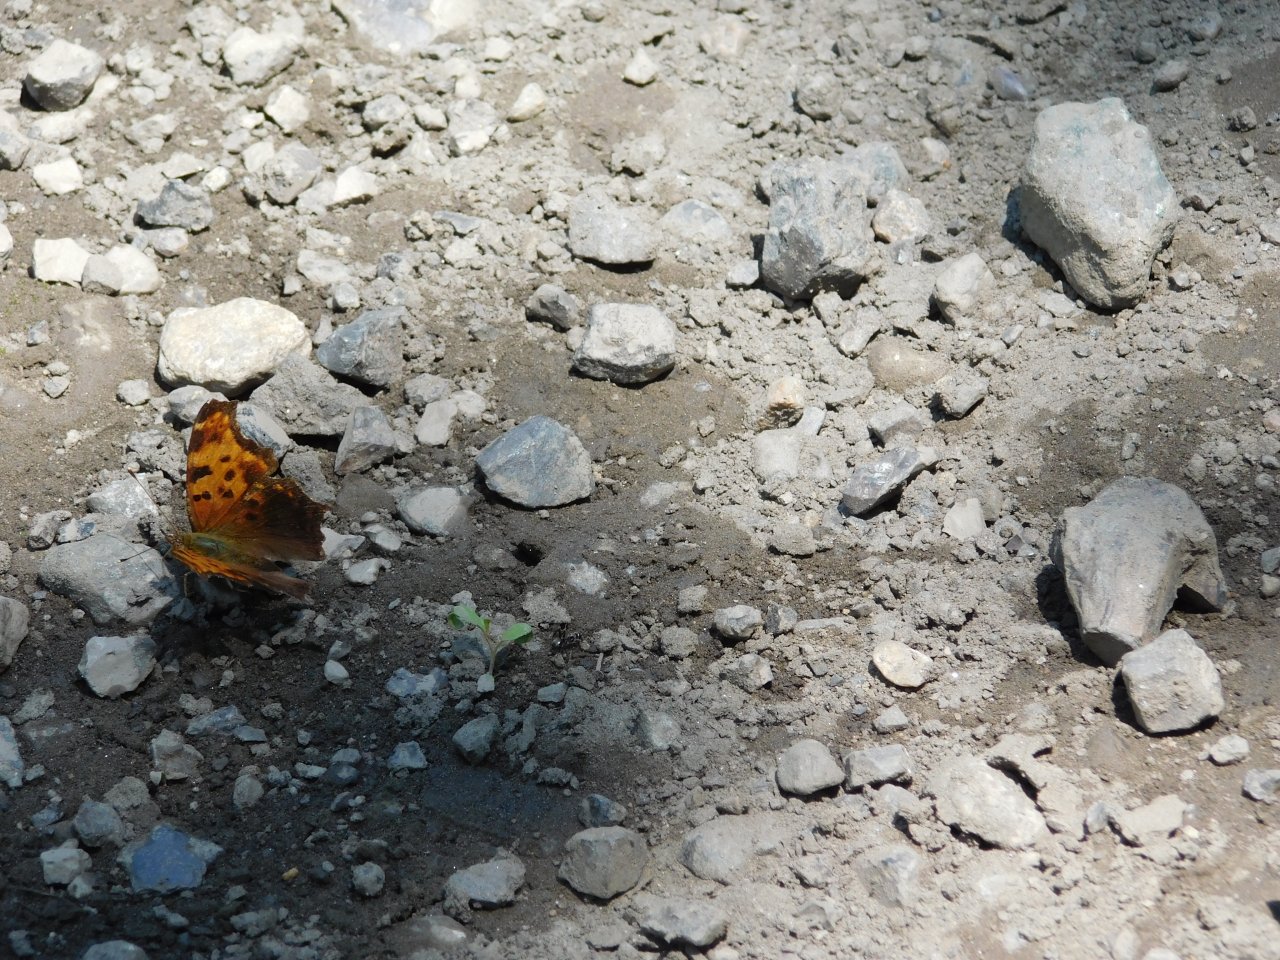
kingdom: Animalia
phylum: Arthropoda
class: Insecta
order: Lepidoptera
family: Nymphalidae
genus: Polygonia
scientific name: Polygonia comma
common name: Eastern Comma
